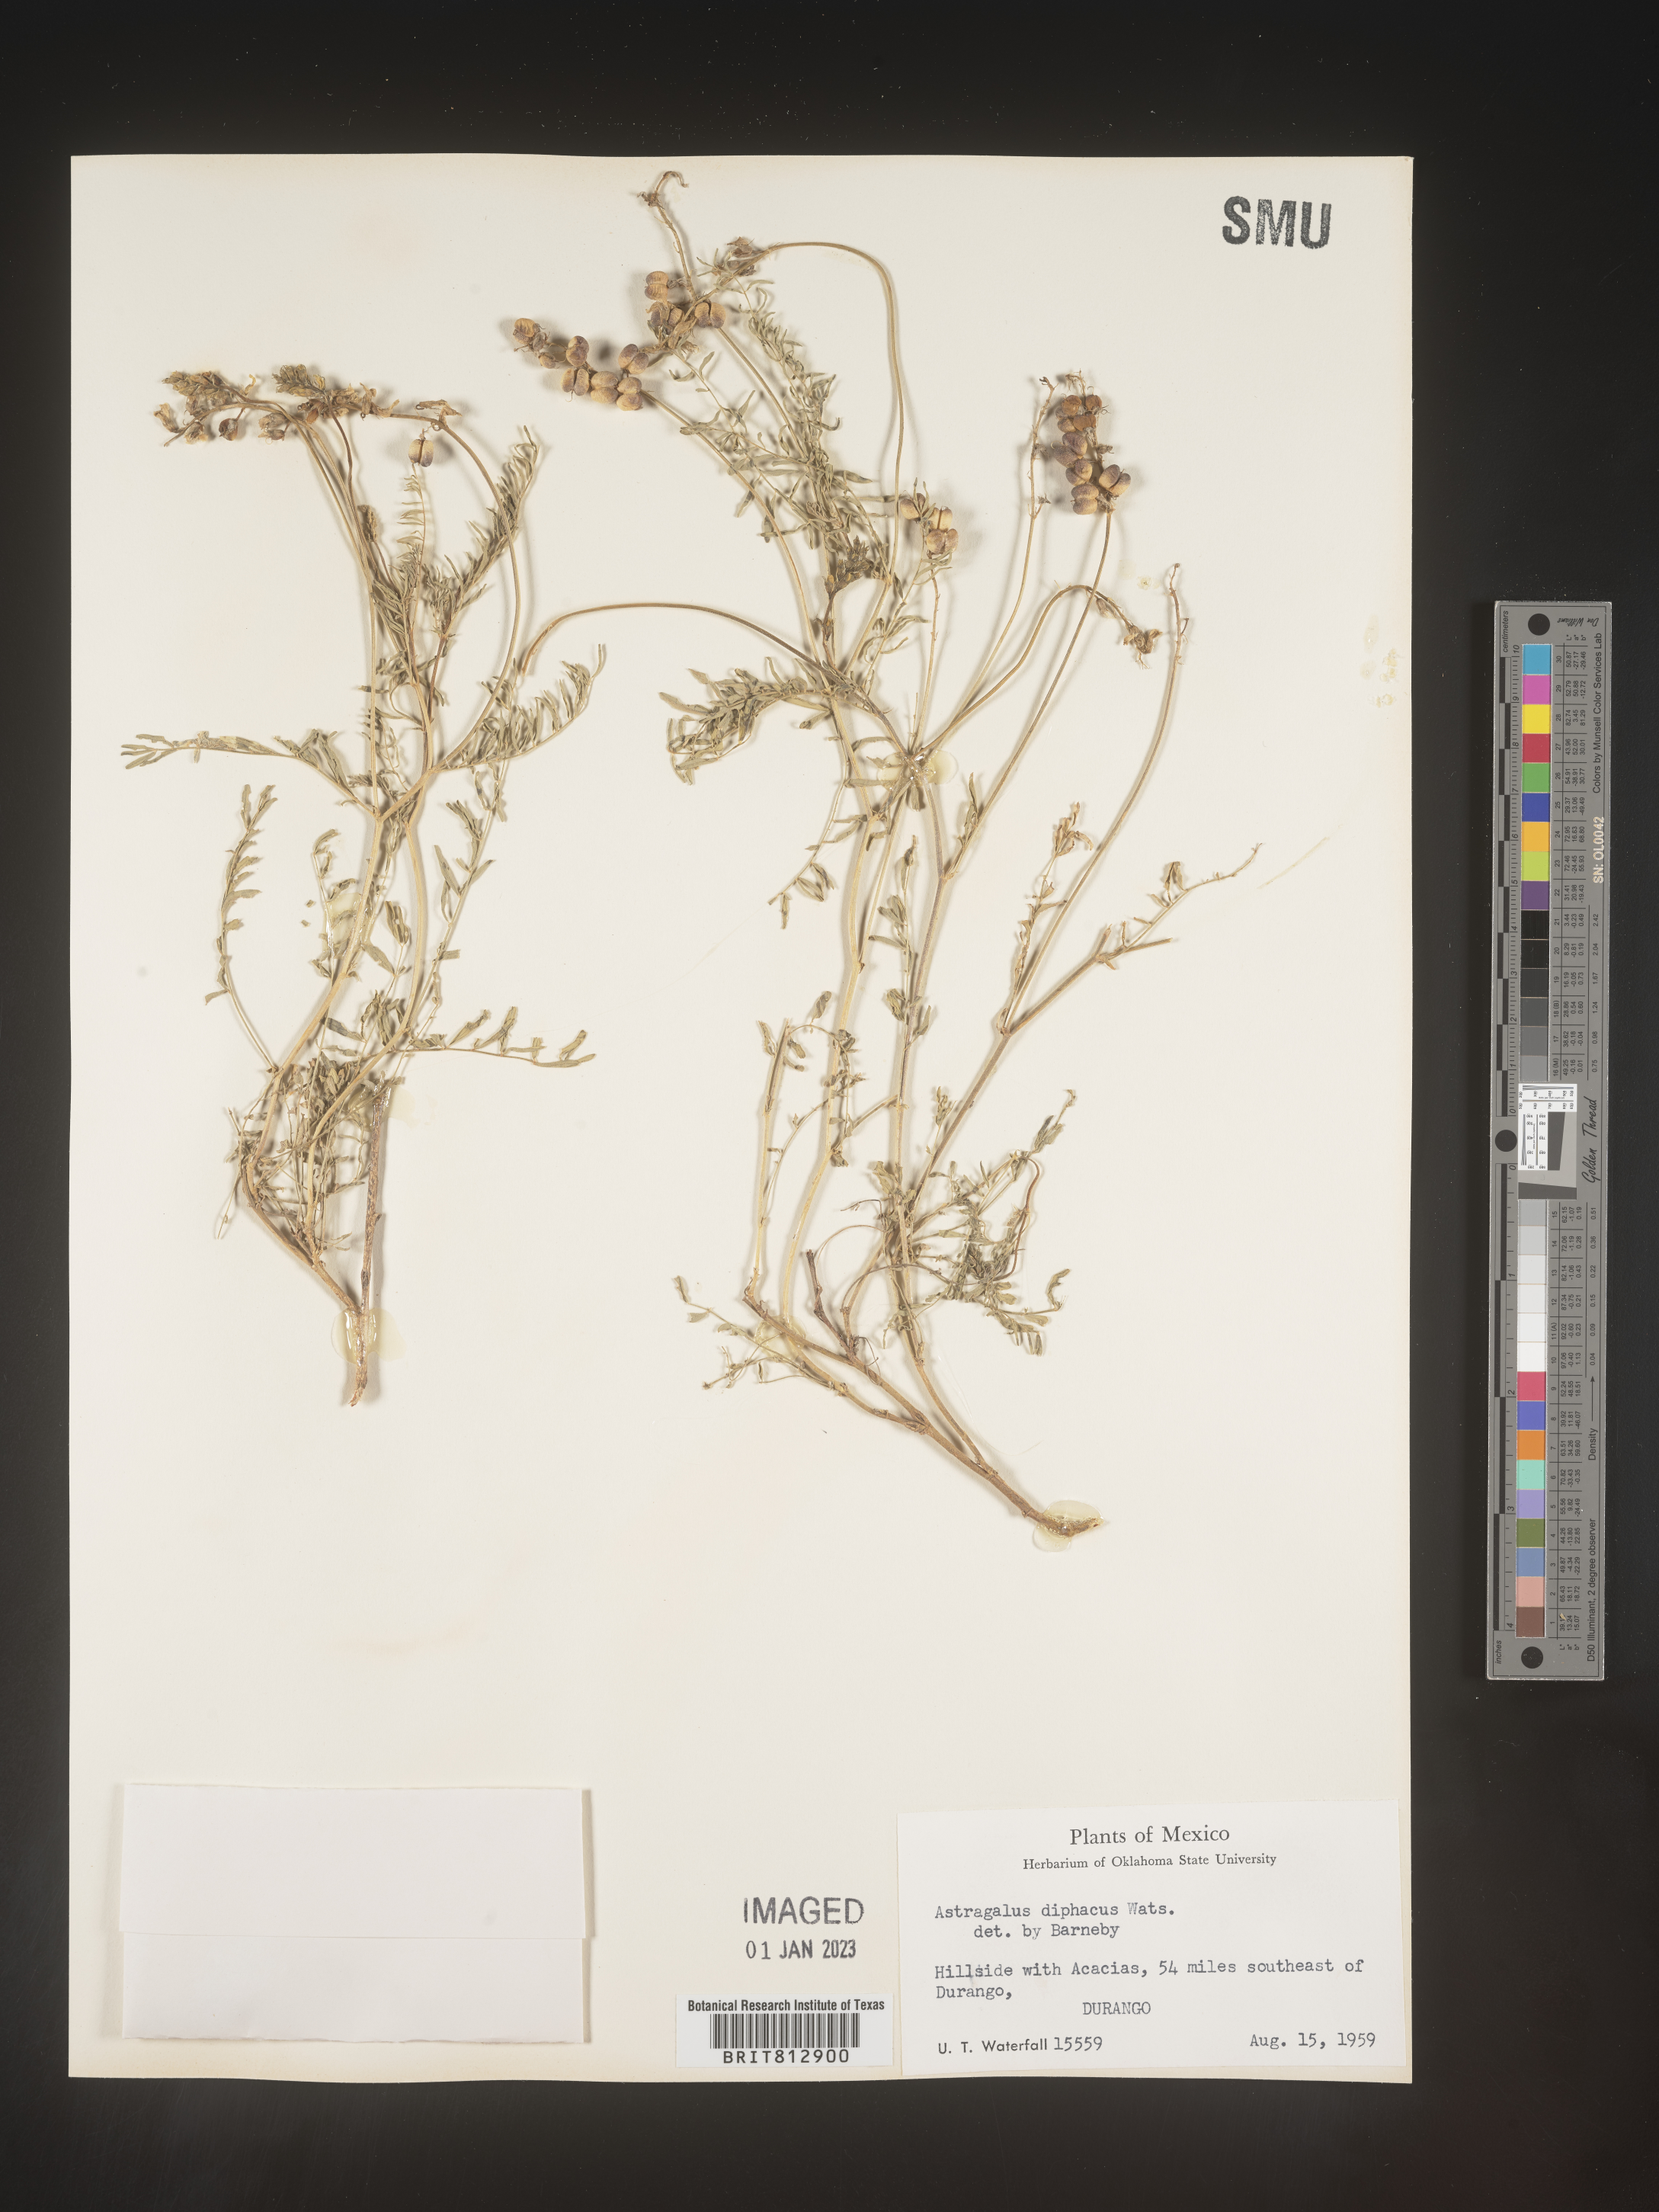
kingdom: Plantae
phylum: Tracheophyta
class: Magnoliopsida
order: Fabales
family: Fabaceae
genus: Astragalus
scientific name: Astragalus
